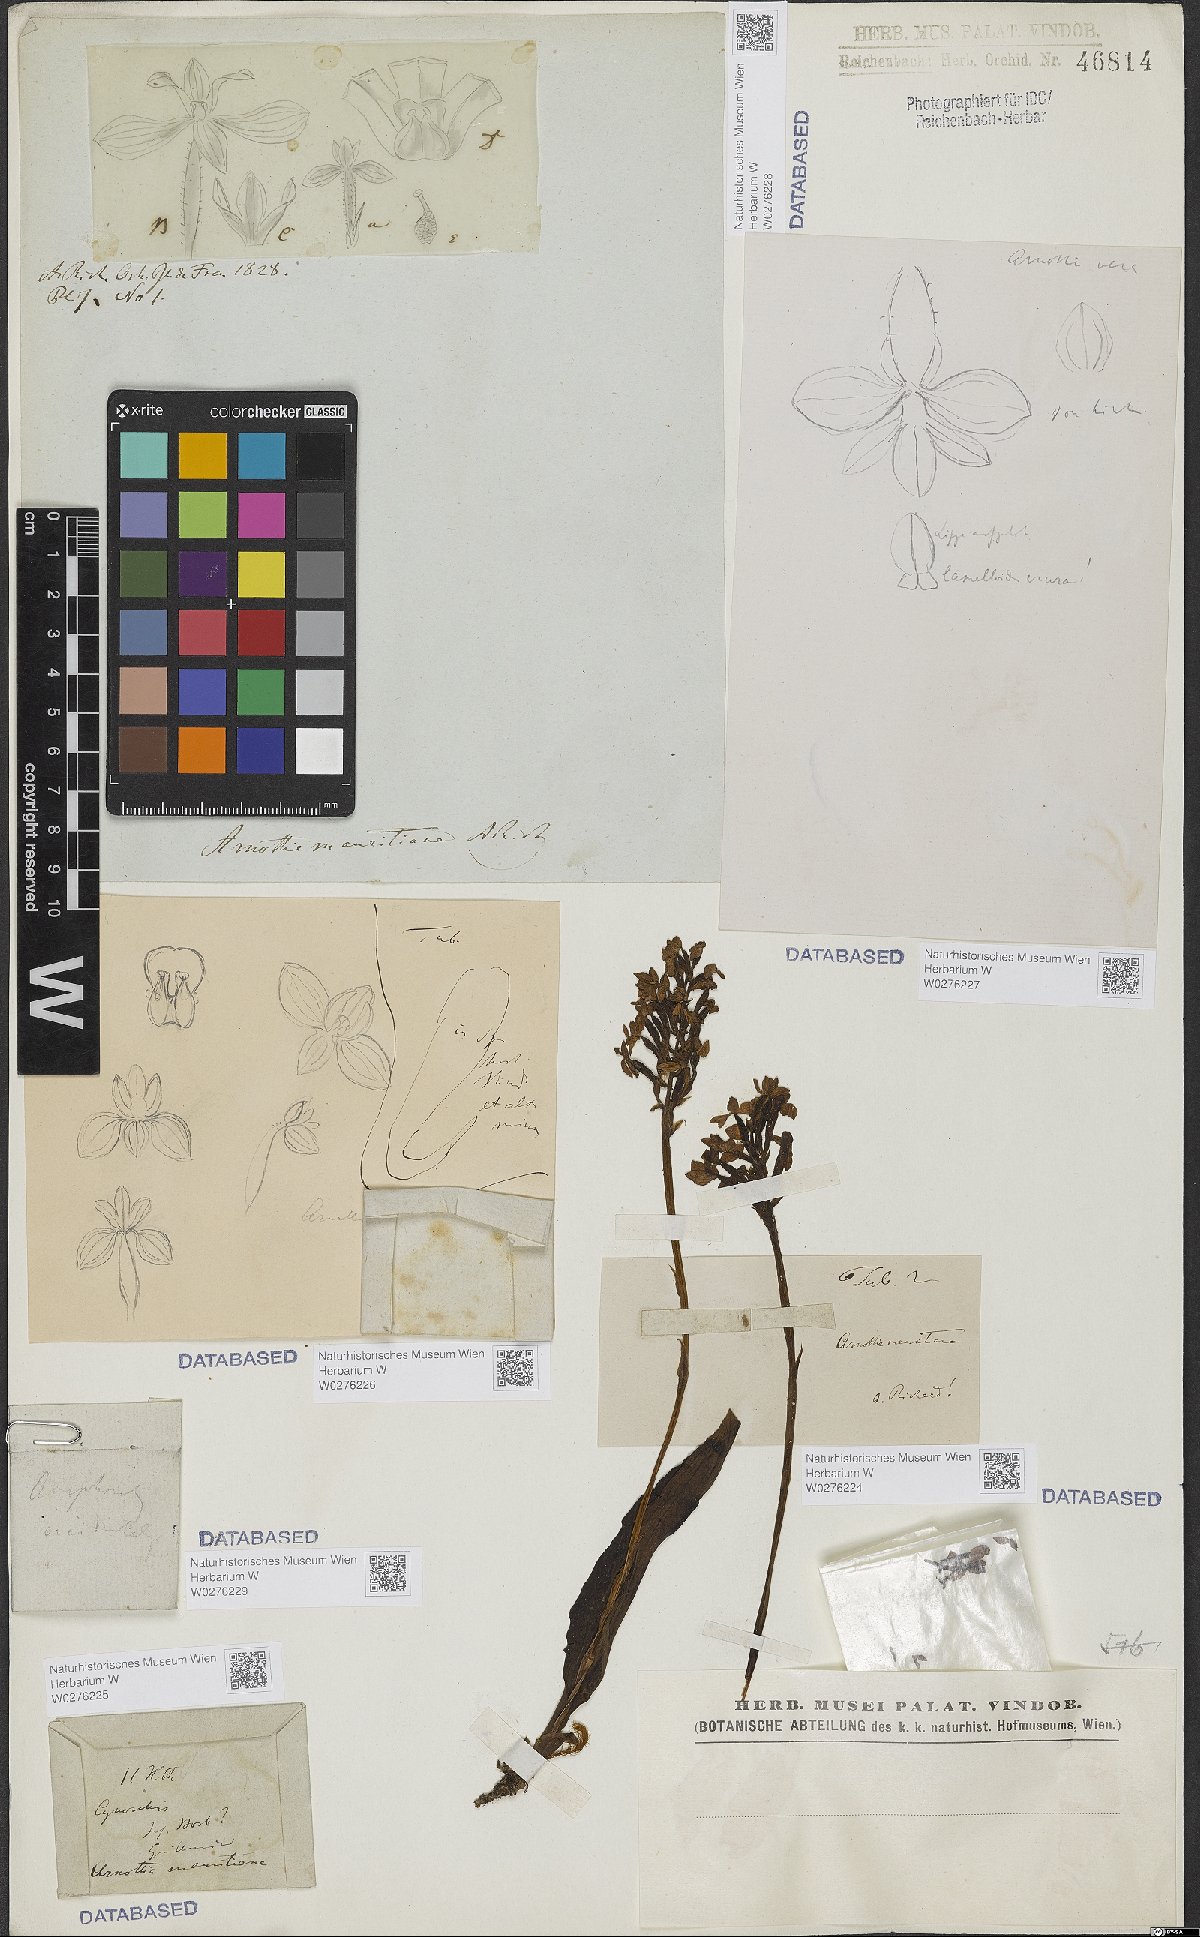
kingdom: Plantae
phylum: Tracheophyta
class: Liliopsida
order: Asparagales
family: Orchidaceae
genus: Cynorkis
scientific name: Cynorkis inermis
